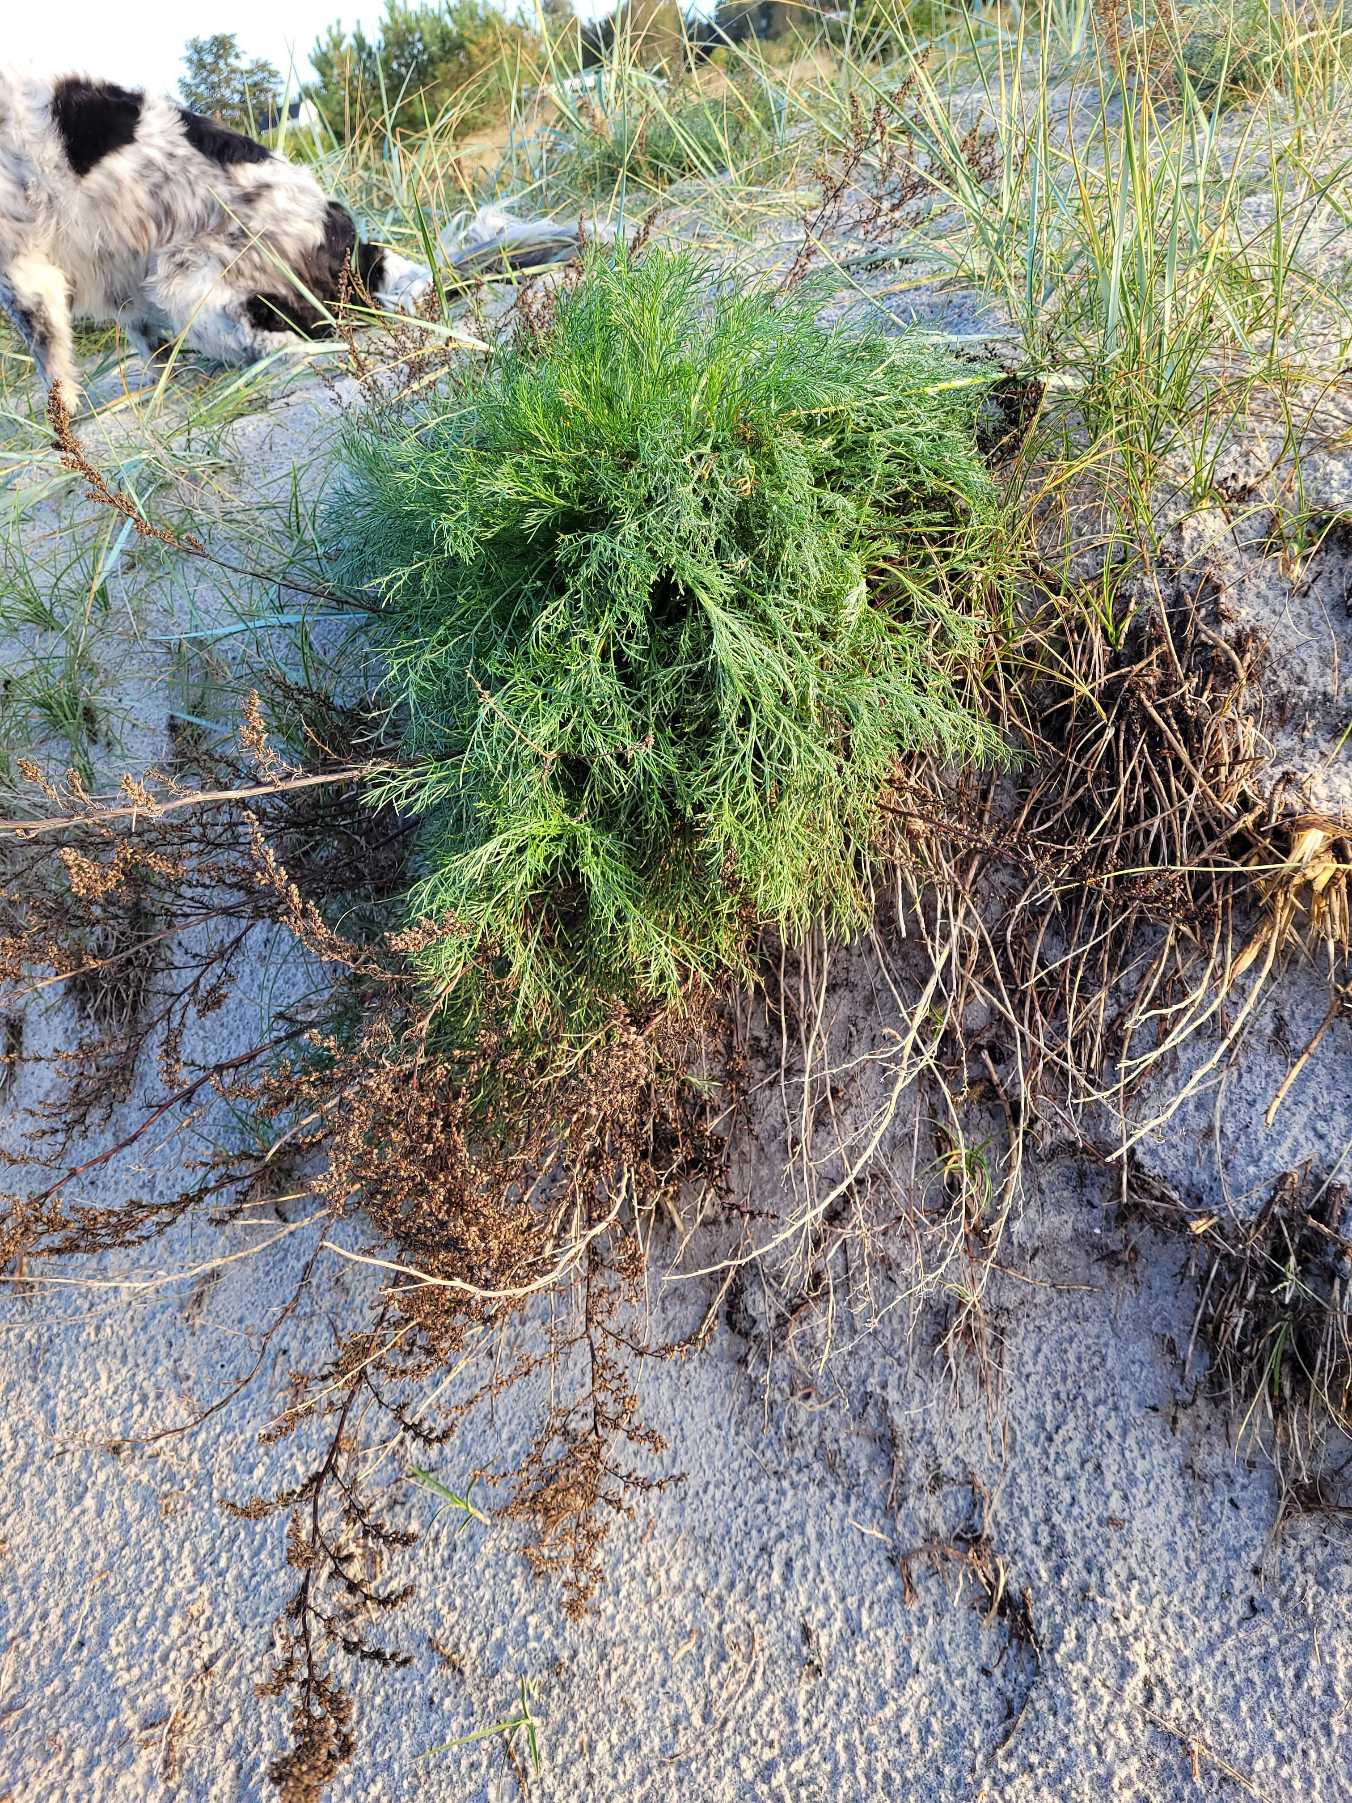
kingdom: Plantae
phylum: Tracheophyta
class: Magnoliopsida
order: Asterales
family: Asteraceae
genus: Artemisia
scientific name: Artemisia campestris
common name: Mark-bynke
